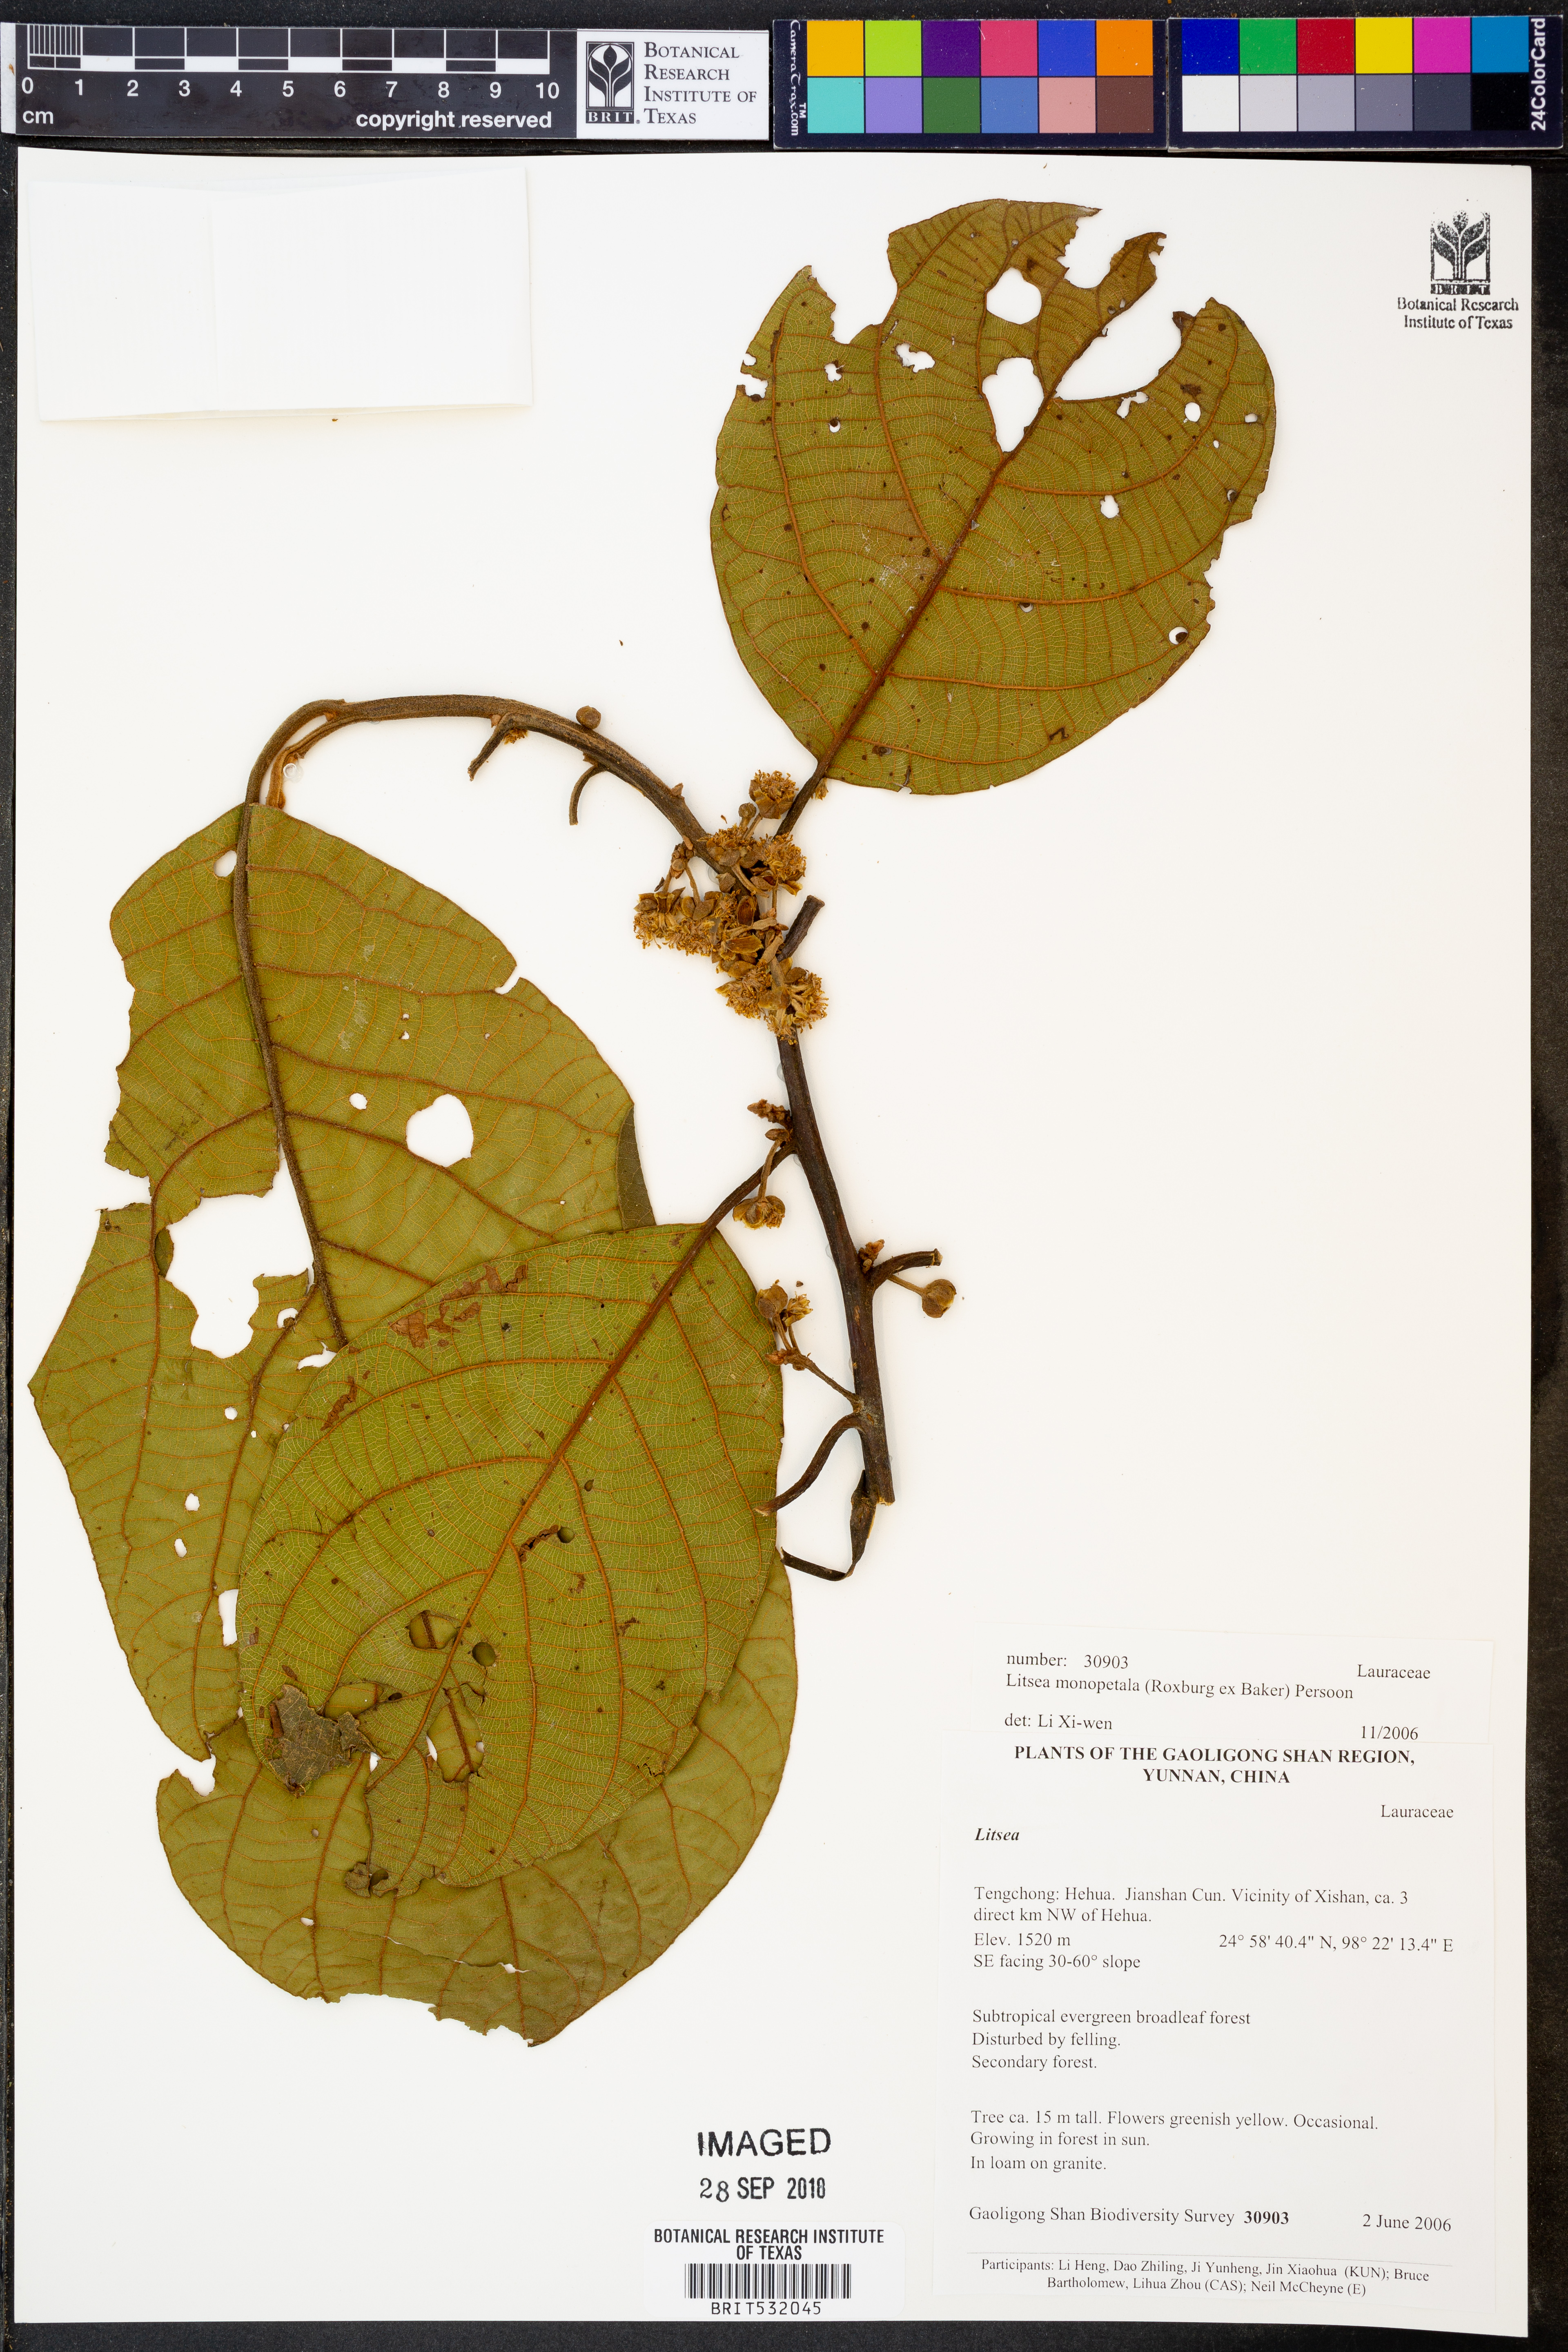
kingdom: Plantae
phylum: Tracheophyta
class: Magnoliopsida
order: Laurales
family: Lauraceae
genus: Litsea
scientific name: Litsea monopetala
